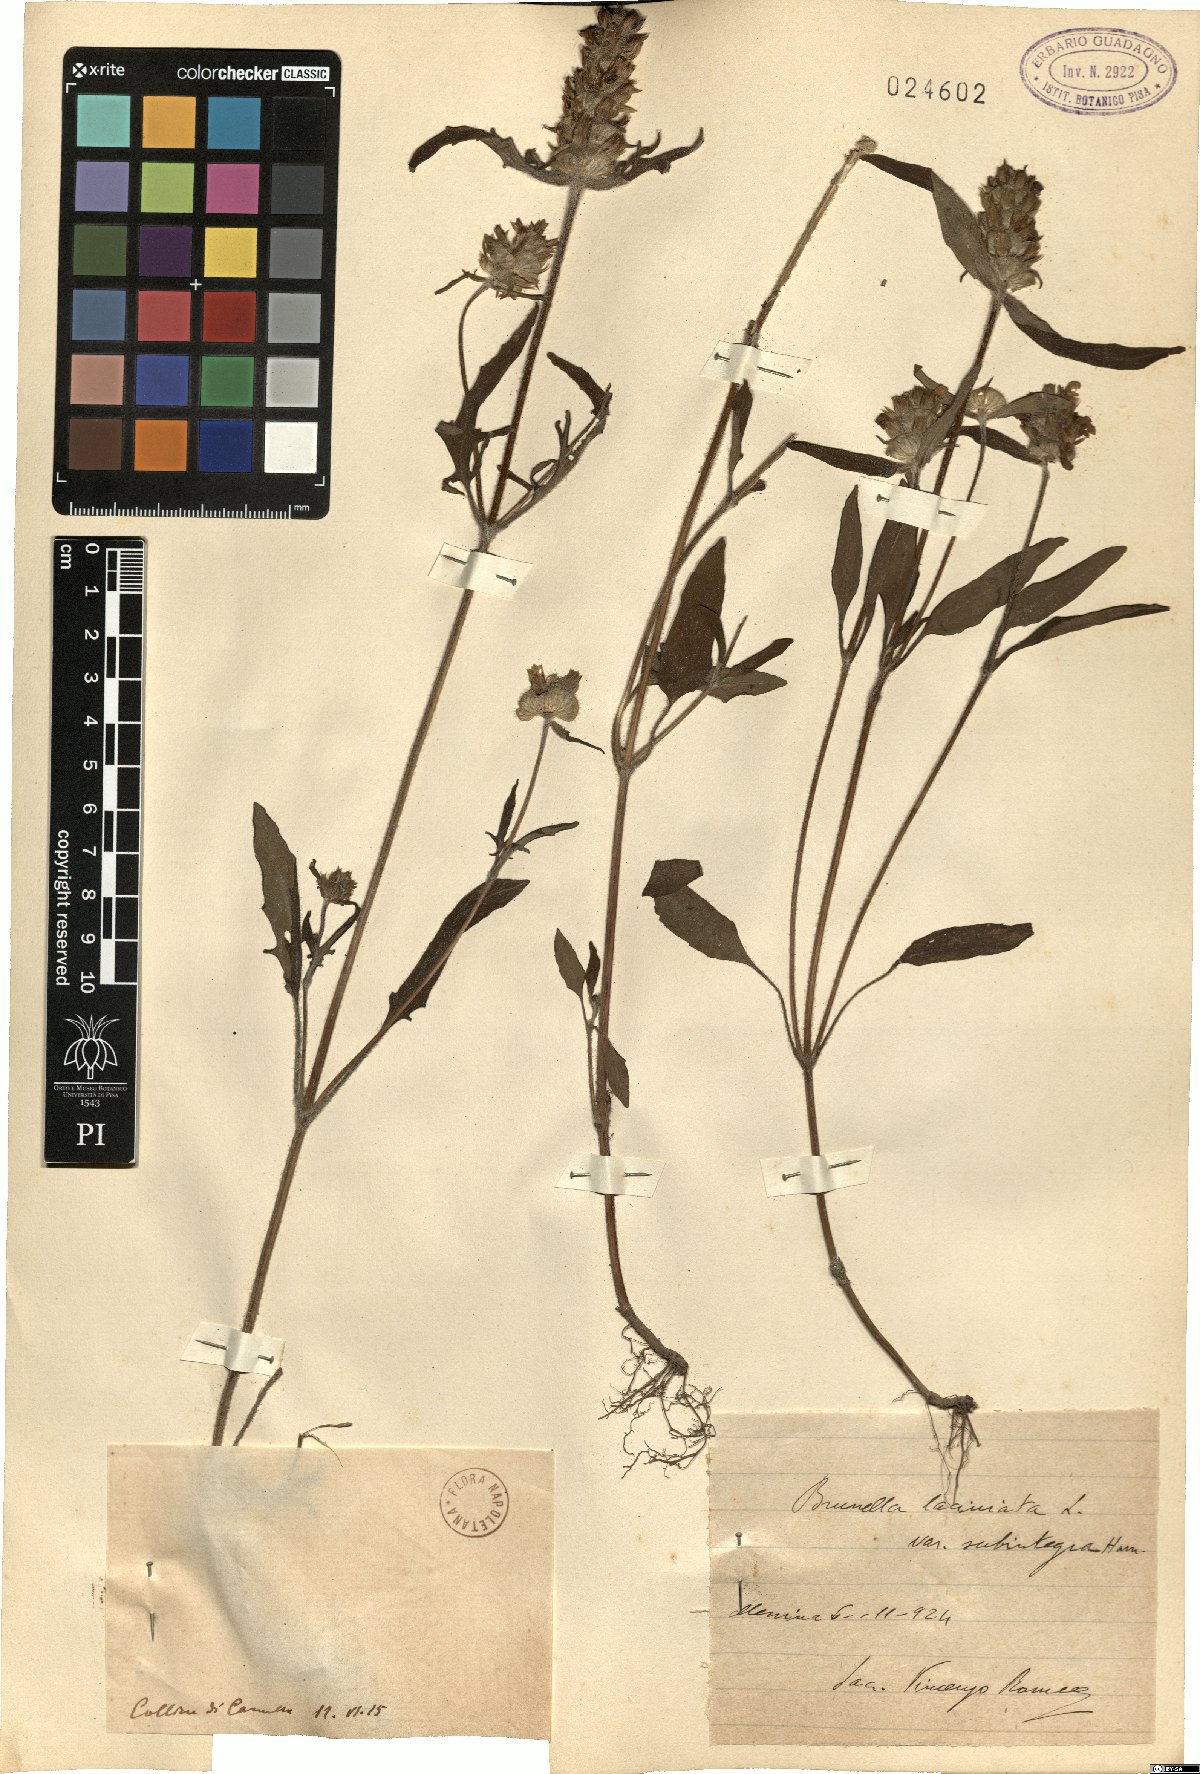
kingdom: Plantae
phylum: Tracheophyta
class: Magnoliopsida
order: Lamiales
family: Lamiaceae
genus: Prunella
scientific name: Prunella laciniata
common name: Cut-leaved selfheal
